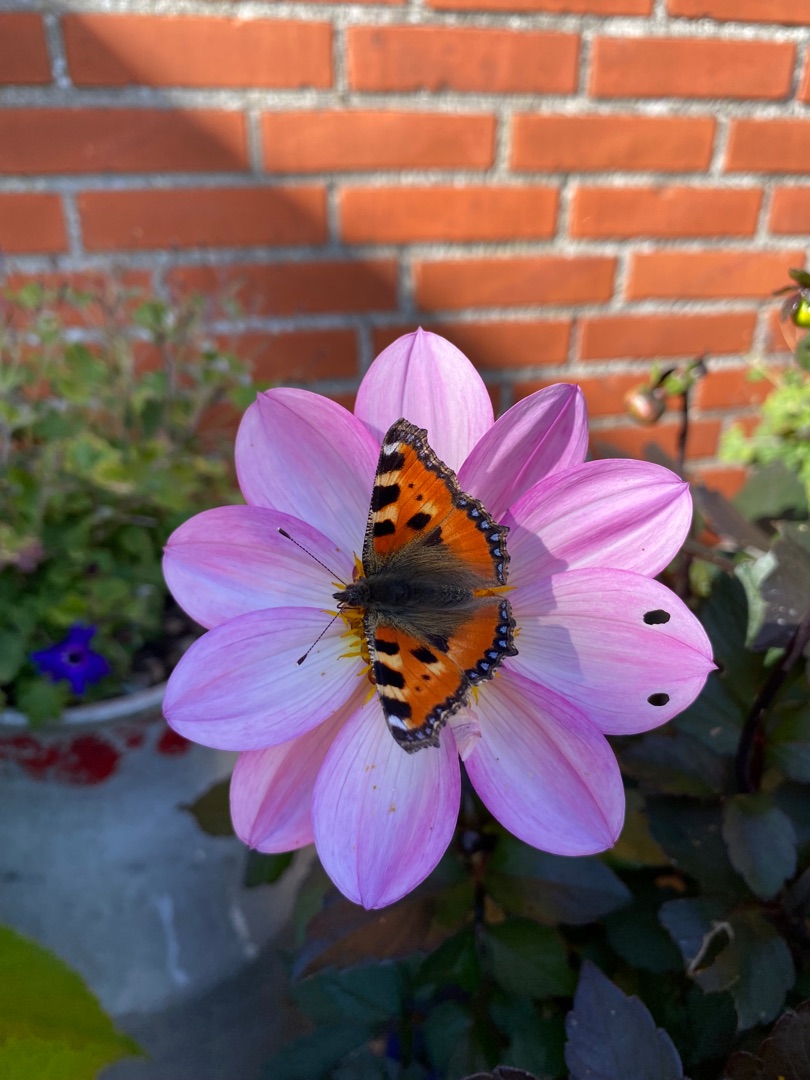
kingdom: Animalia
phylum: Arthropoda
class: Insecta
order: Lepidoptera
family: Nymphalidae
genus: Aglais
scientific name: Aglais urticae
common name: Nældens takvinge
